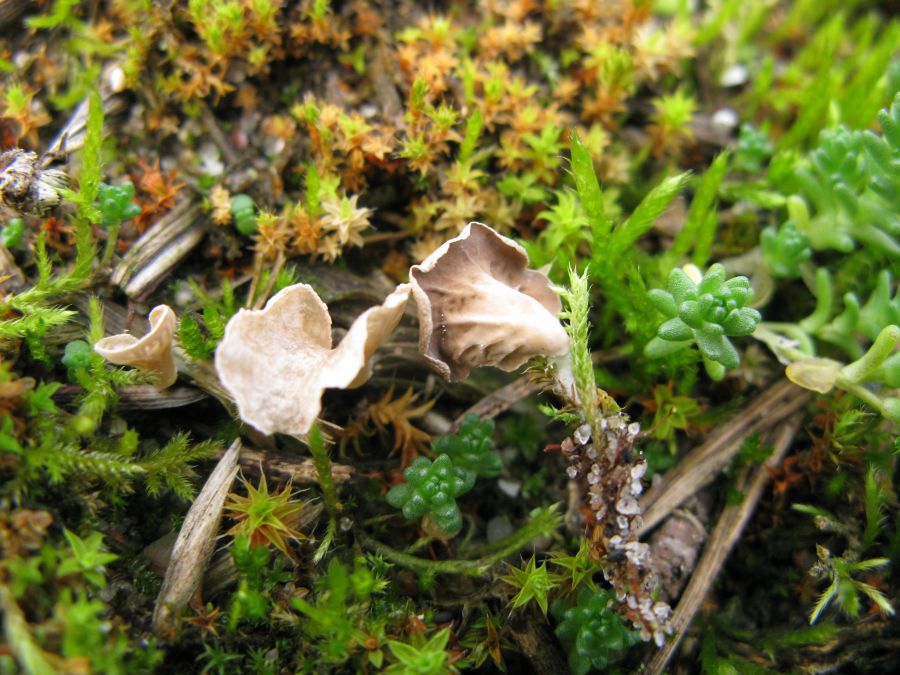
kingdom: Fungi
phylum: Basidiomycota
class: Agaricomycetes
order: Agaricales
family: Hygrophoraceae
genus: Arrhenia
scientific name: Arrhenia spathulata
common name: skæv fontænehat
